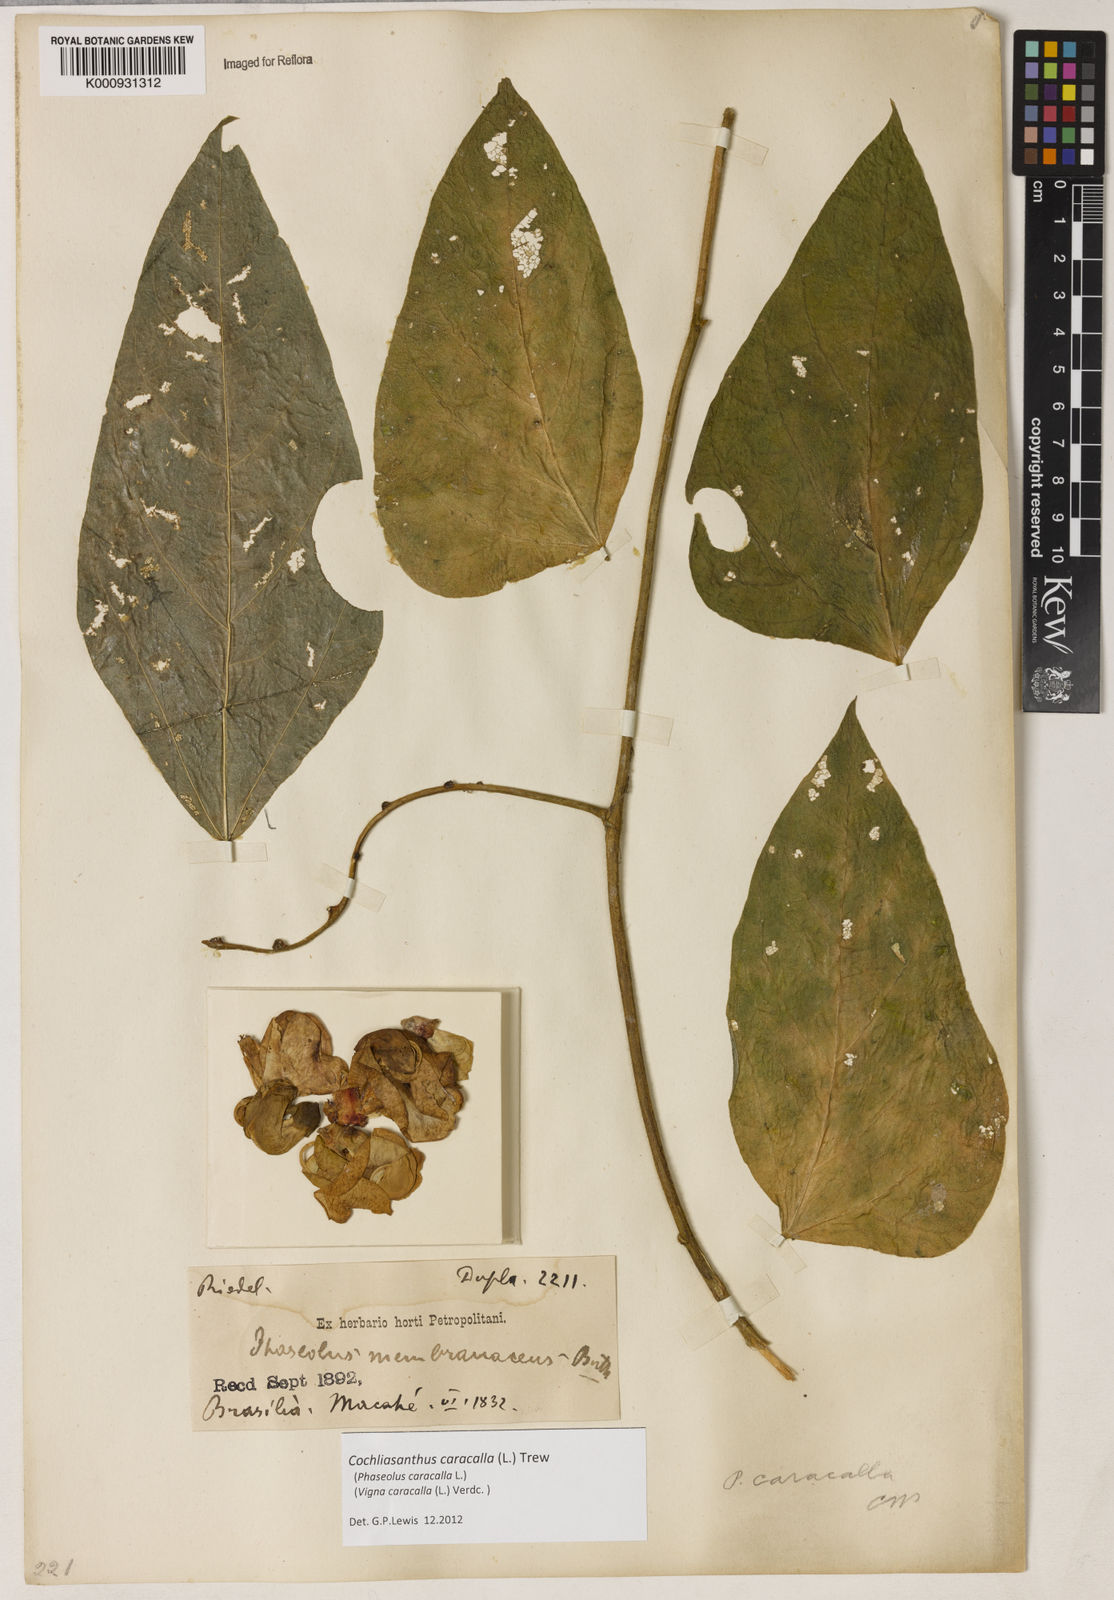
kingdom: Plantae
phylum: Tracheophyta
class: Magnoliopsida
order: Fabales
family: Fabaceae
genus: Cochliasanthus
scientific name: Cochliasanthus caracalla
